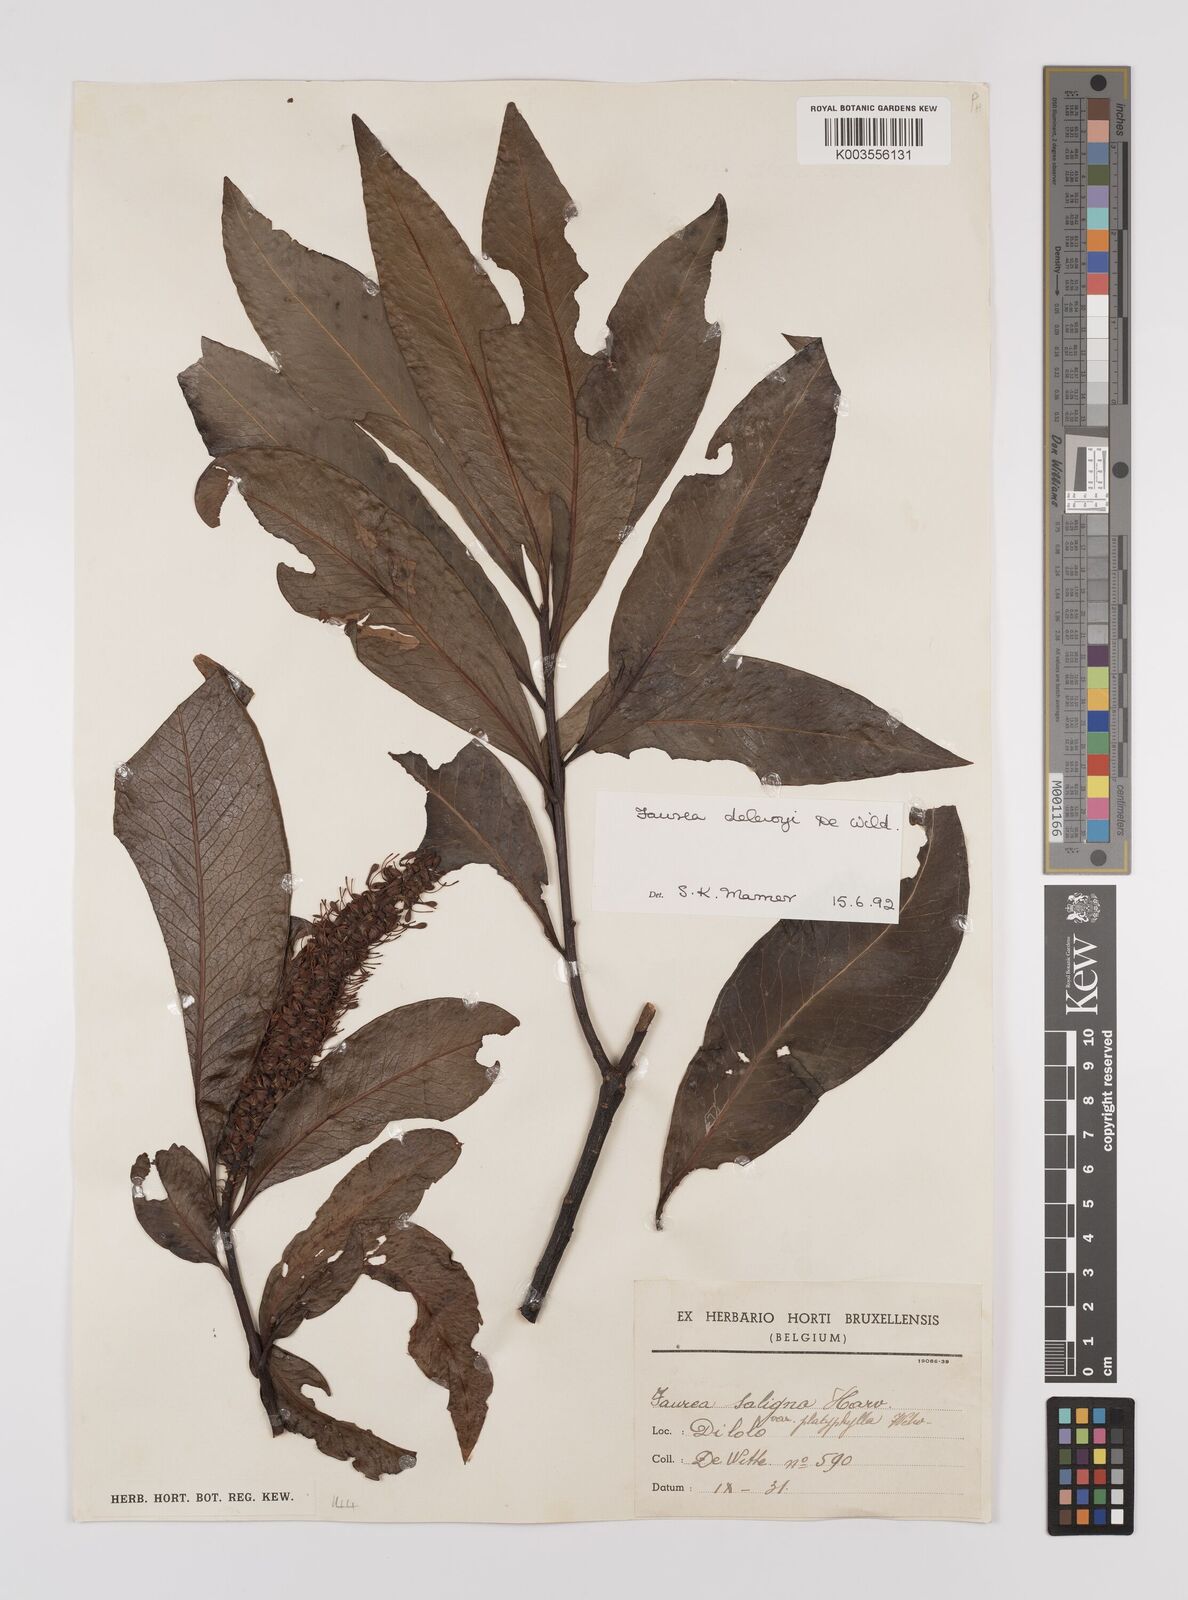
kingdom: Plantae
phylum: Tracheophyta
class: Magnoliopsida
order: Proteales
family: Proteaceae
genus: Faurea
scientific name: Faurea delevoyi
